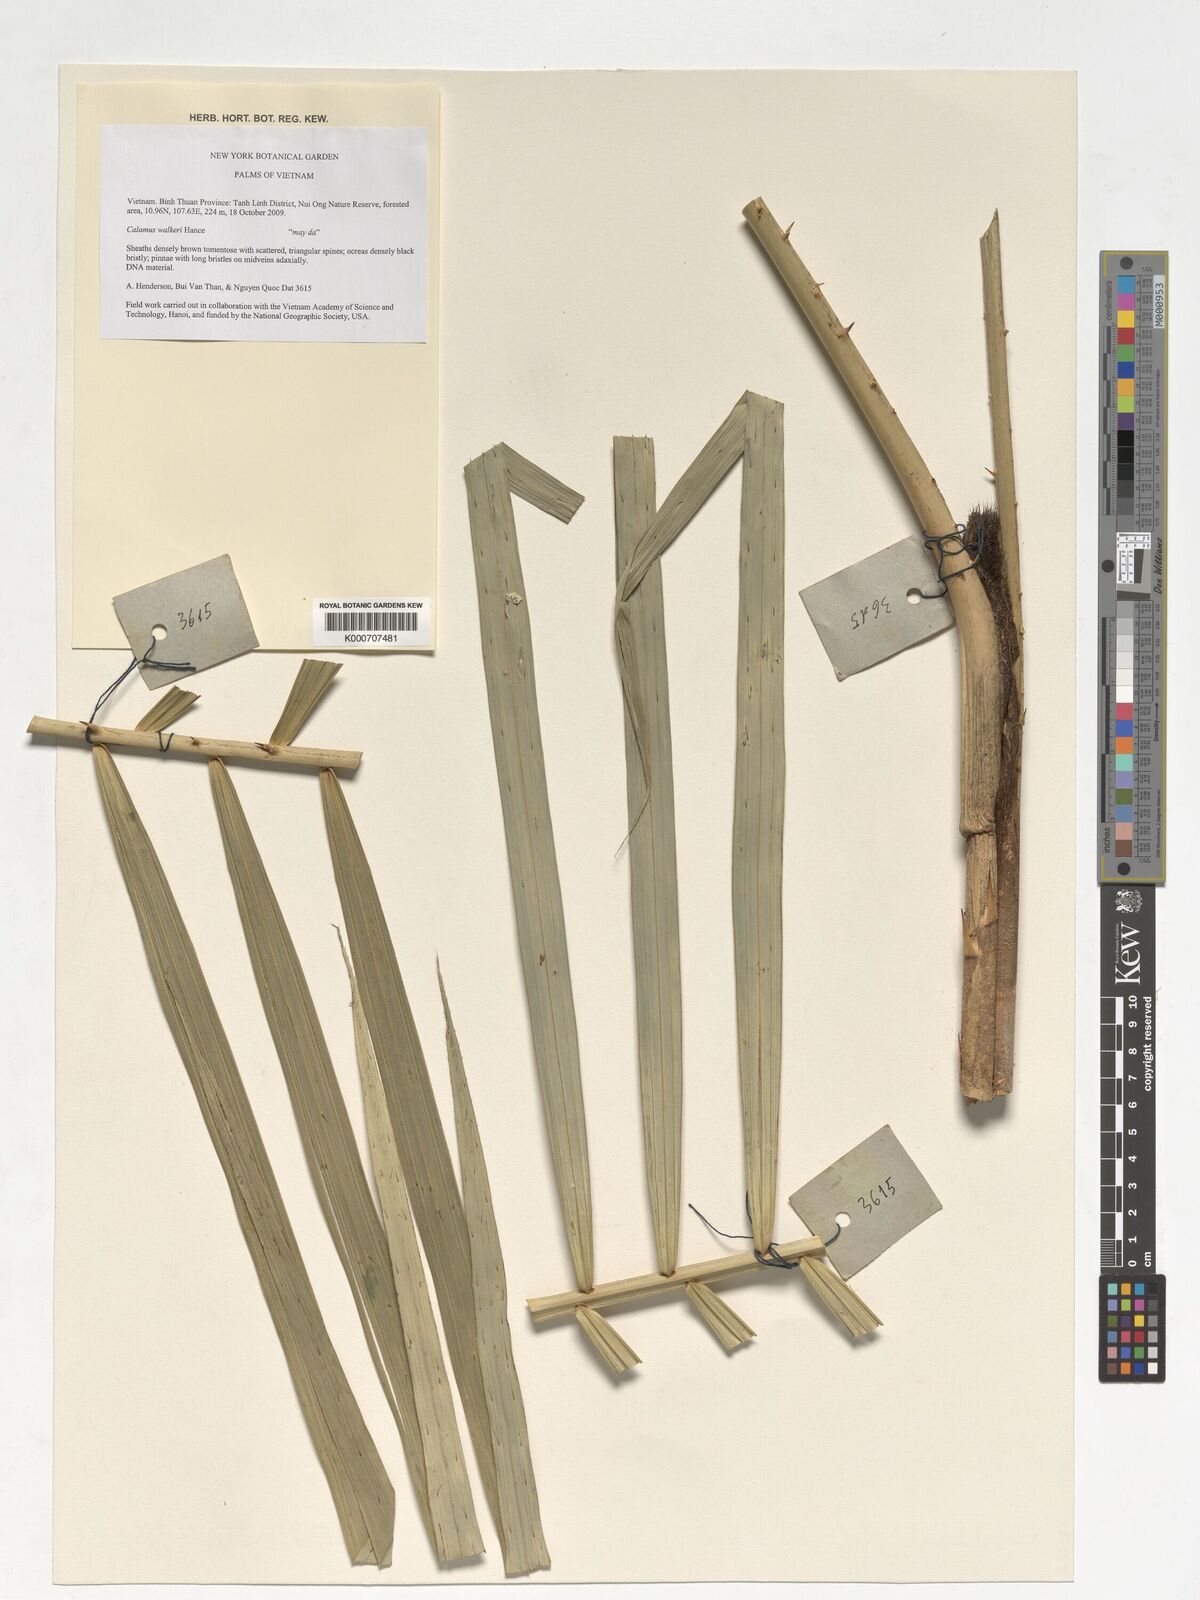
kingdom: Plantae
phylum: Tracheophyta
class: Liliopsida
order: Arecales
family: Arecaceae
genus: Calamus
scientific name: Calamus walkeri
